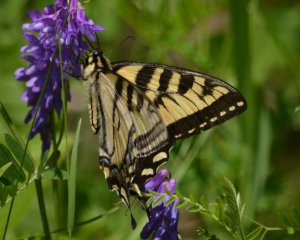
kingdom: Animalia
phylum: Arthropoda
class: Insecta
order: Lepidoptera
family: Papilionidae
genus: Pterourus
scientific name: Pterourus canadensis
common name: Canadian Tiger Swallowtail
